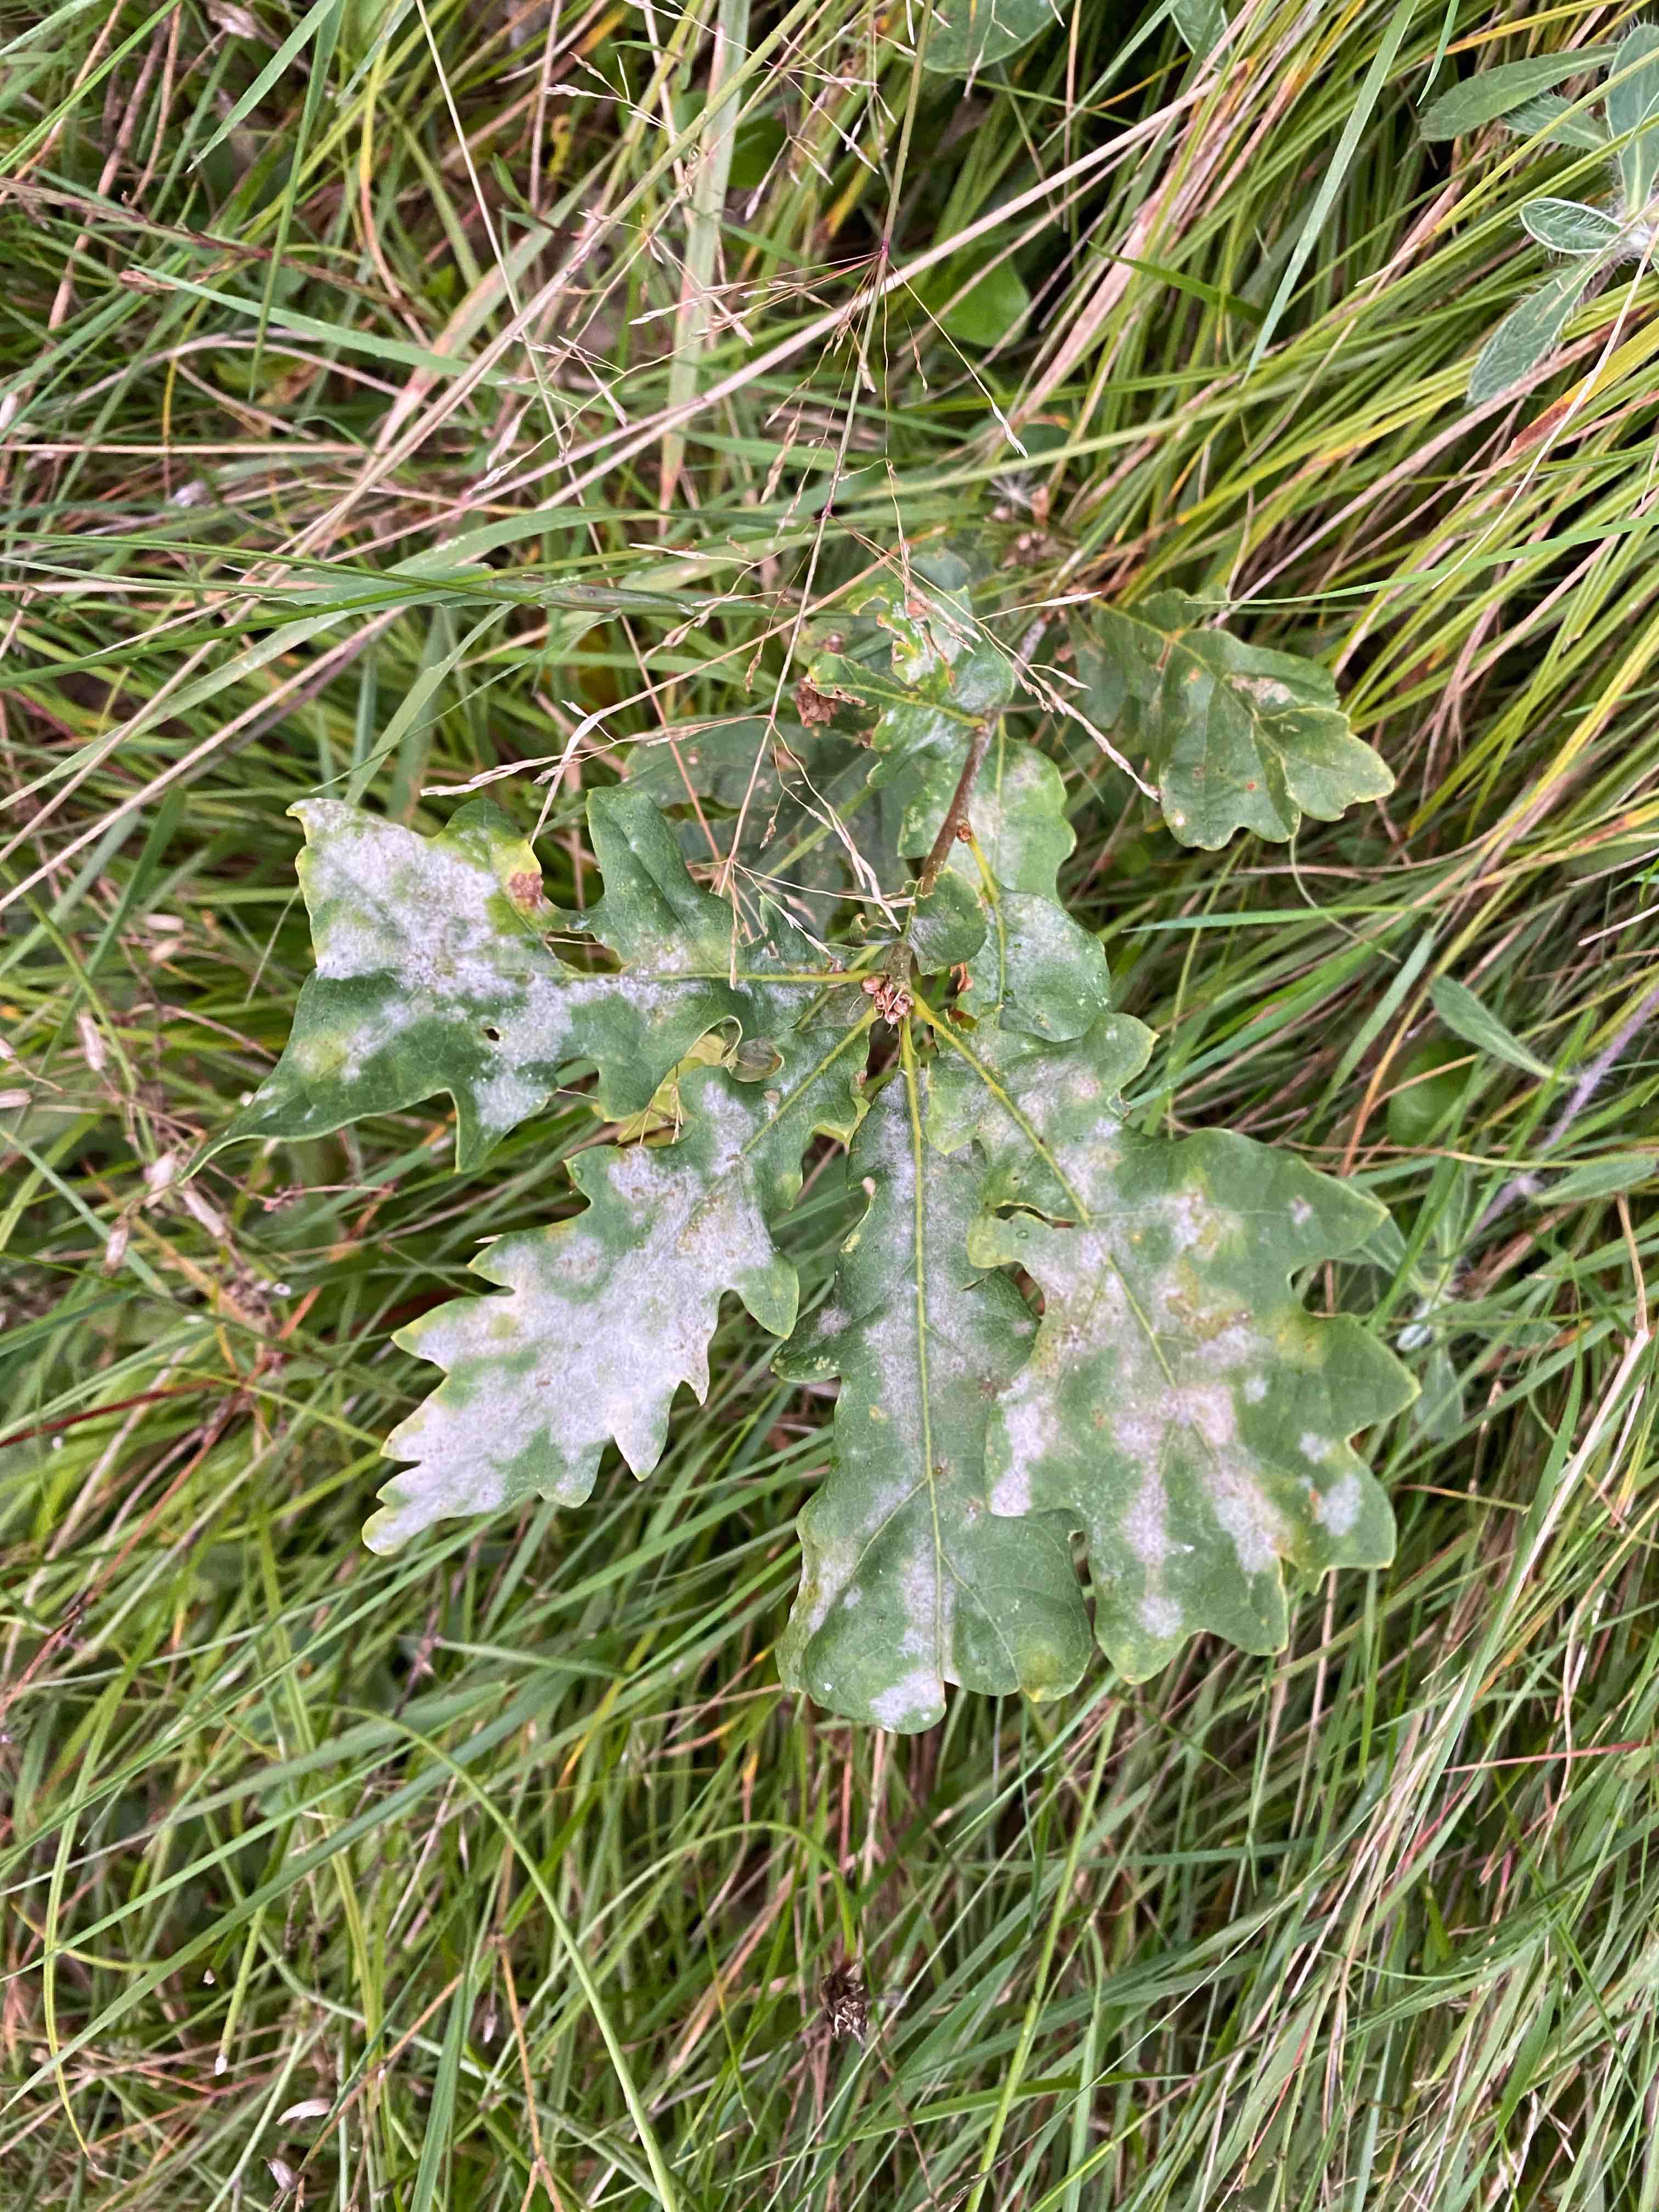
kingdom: Fungi
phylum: Ascomycota
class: Leotiomycetes
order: Helotiales
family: Erysiphaceae
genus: Erysiphe
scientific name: Erysiphe alphitoides
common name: ege-meldug
